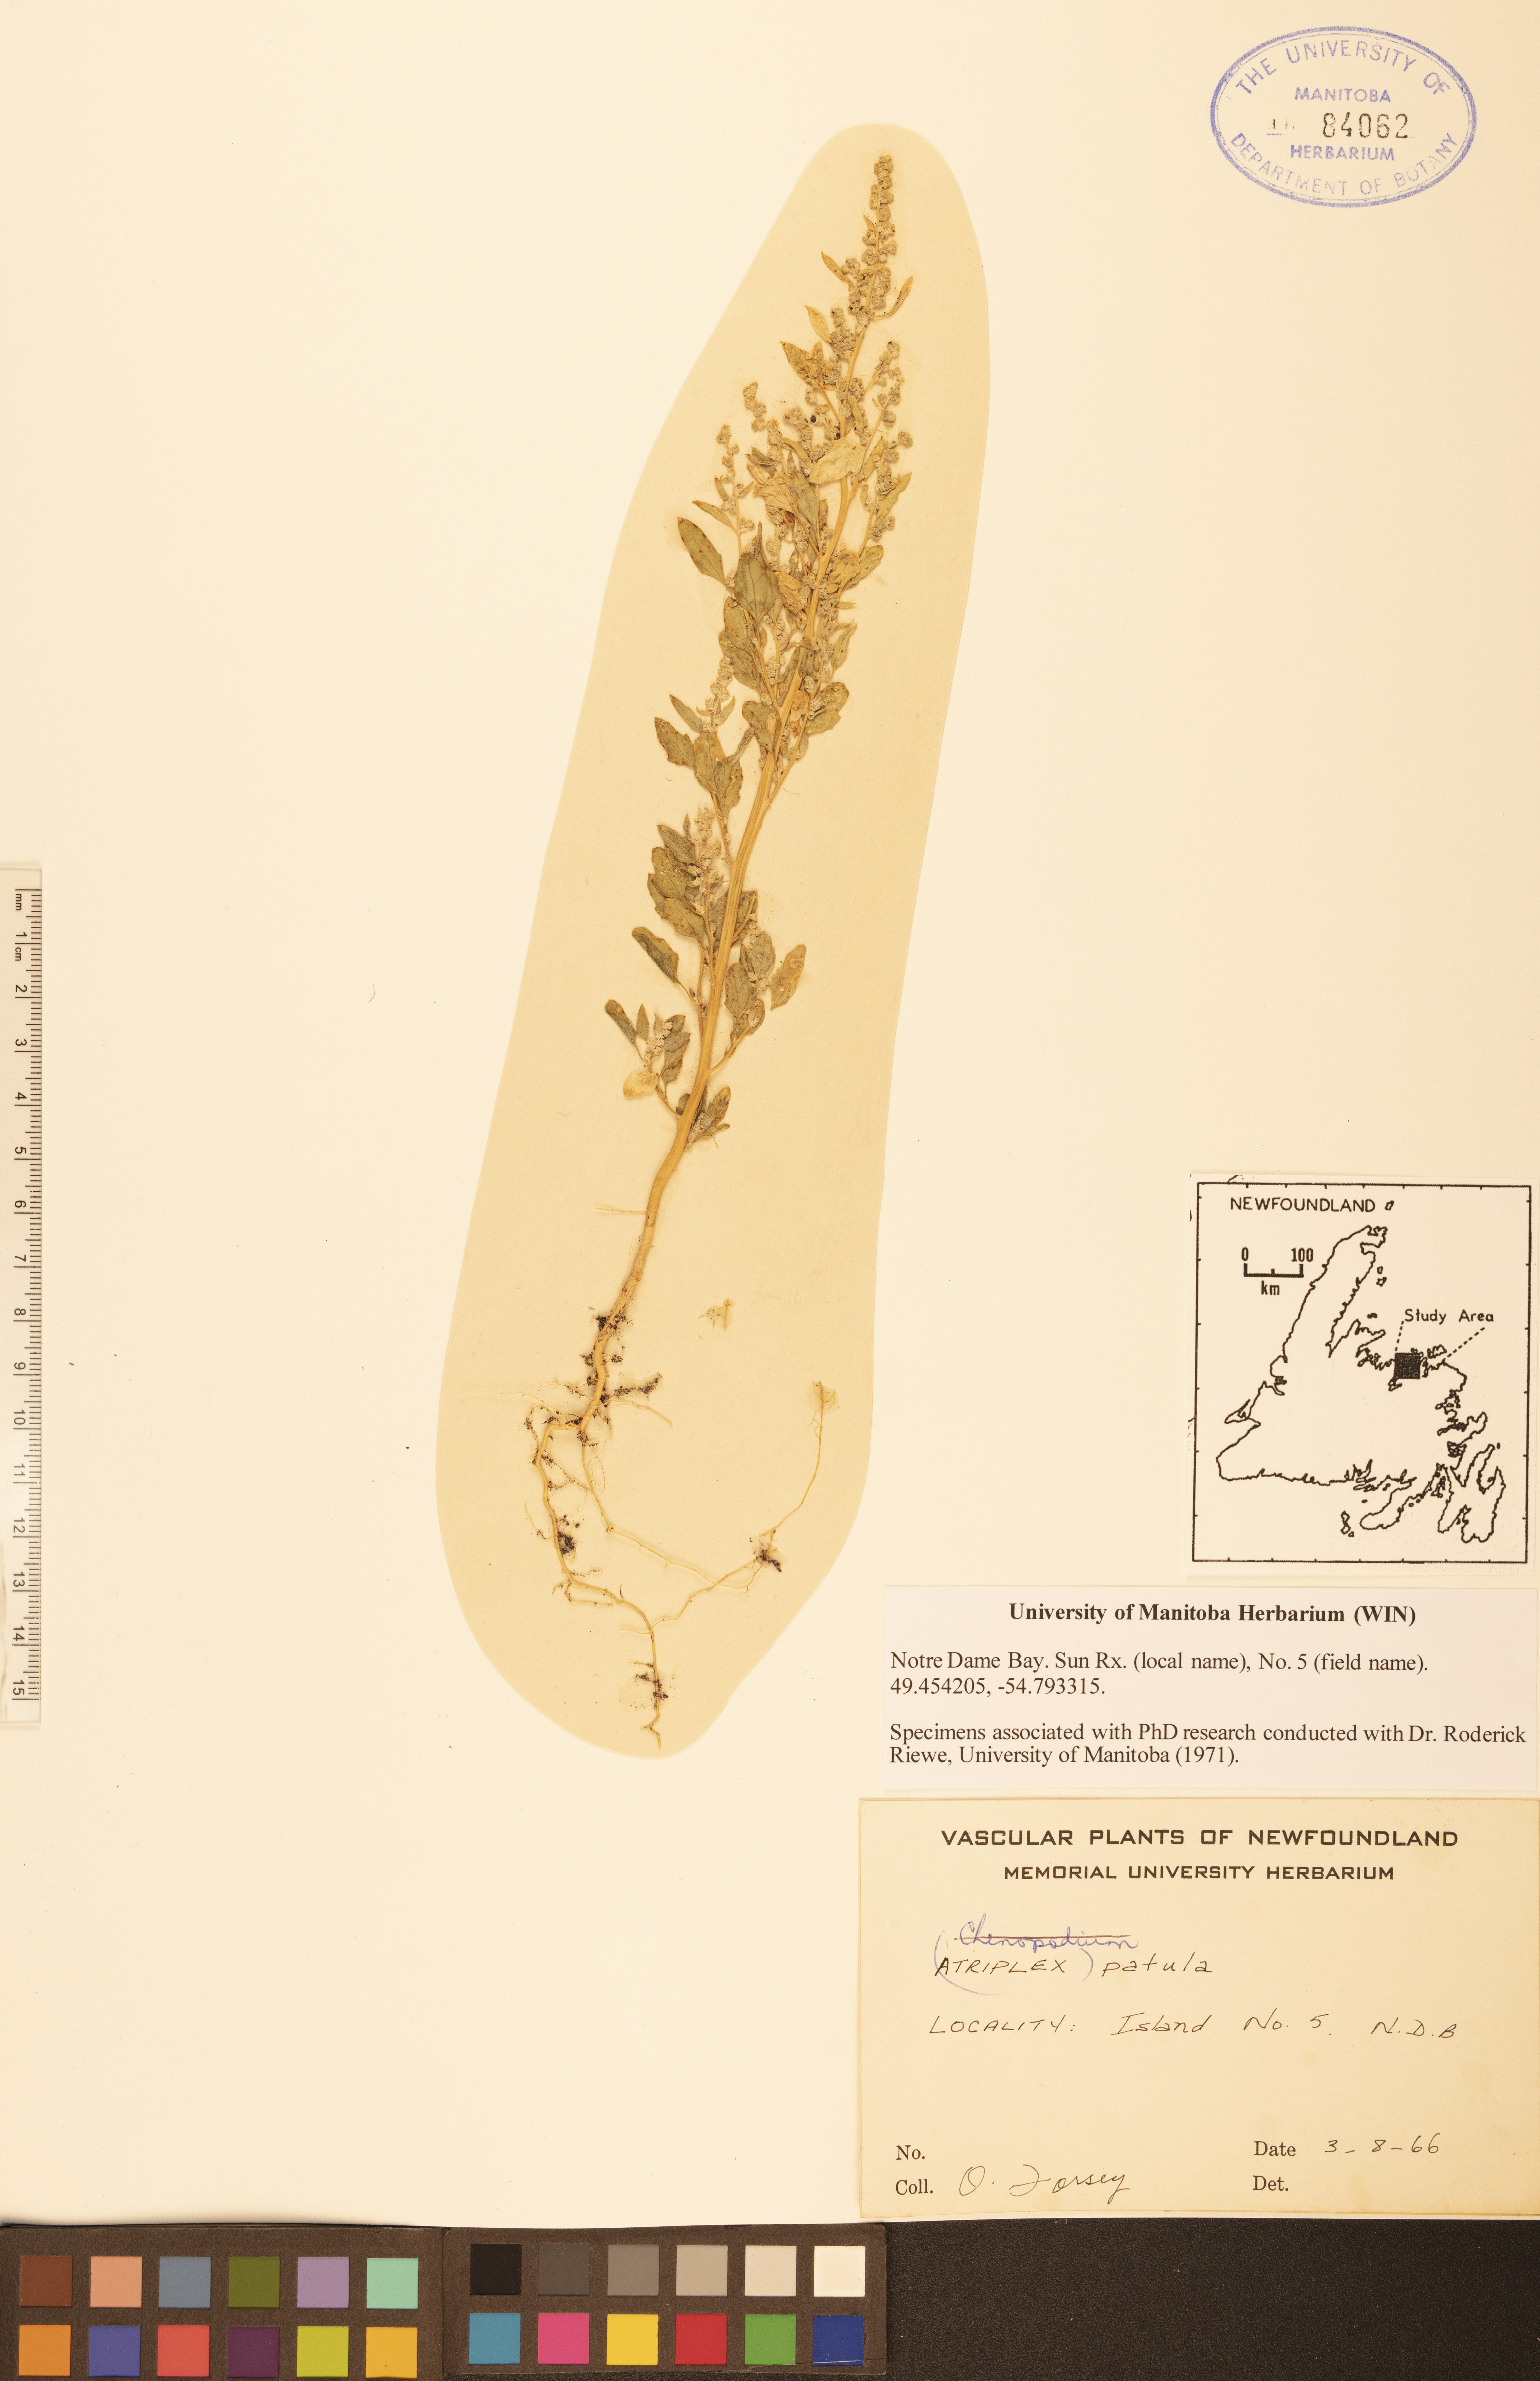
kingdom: Plantae
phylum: Tracheophyta
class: Magnoliopsida
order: Caryophyllales
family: Amaranthaceae
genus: Atriplex
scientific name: Atriplex patula
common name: Common orache
